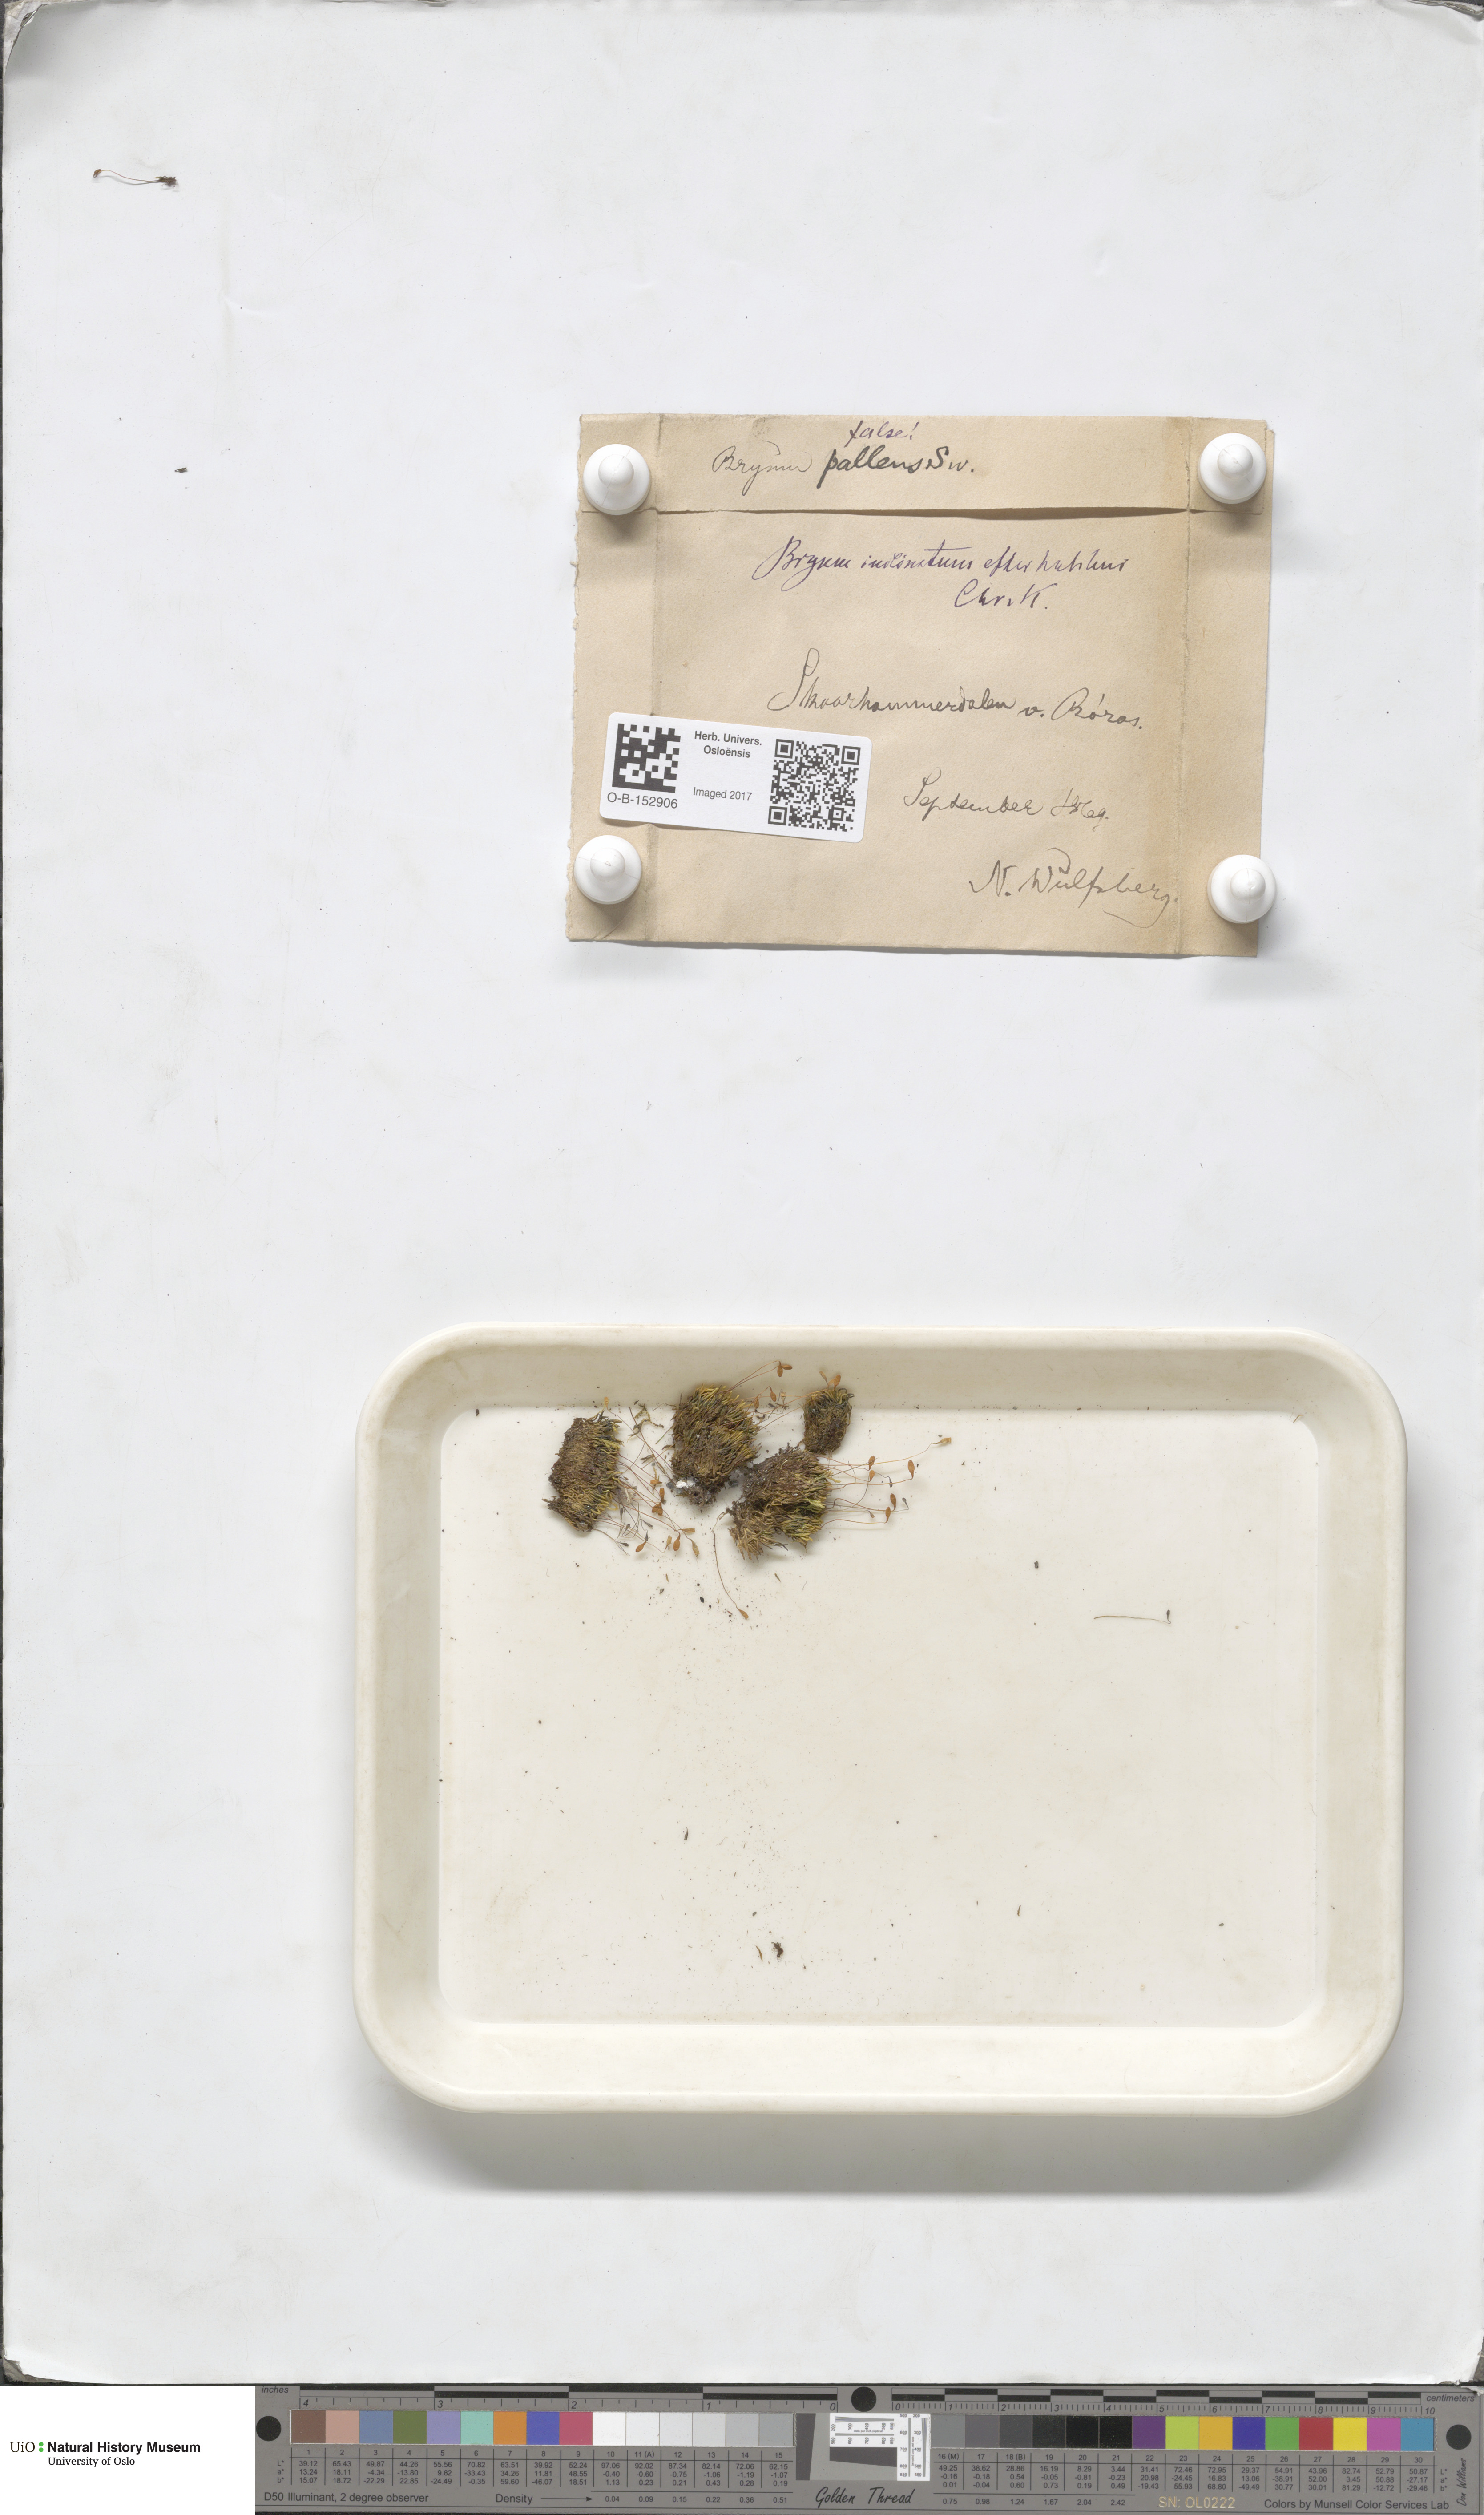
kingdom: Plantae
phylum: Bryophyta
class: Bryopsida
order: Bryales
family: Bryaceae
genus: Ptychostomum
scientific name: Ptychostomum inclinatum
